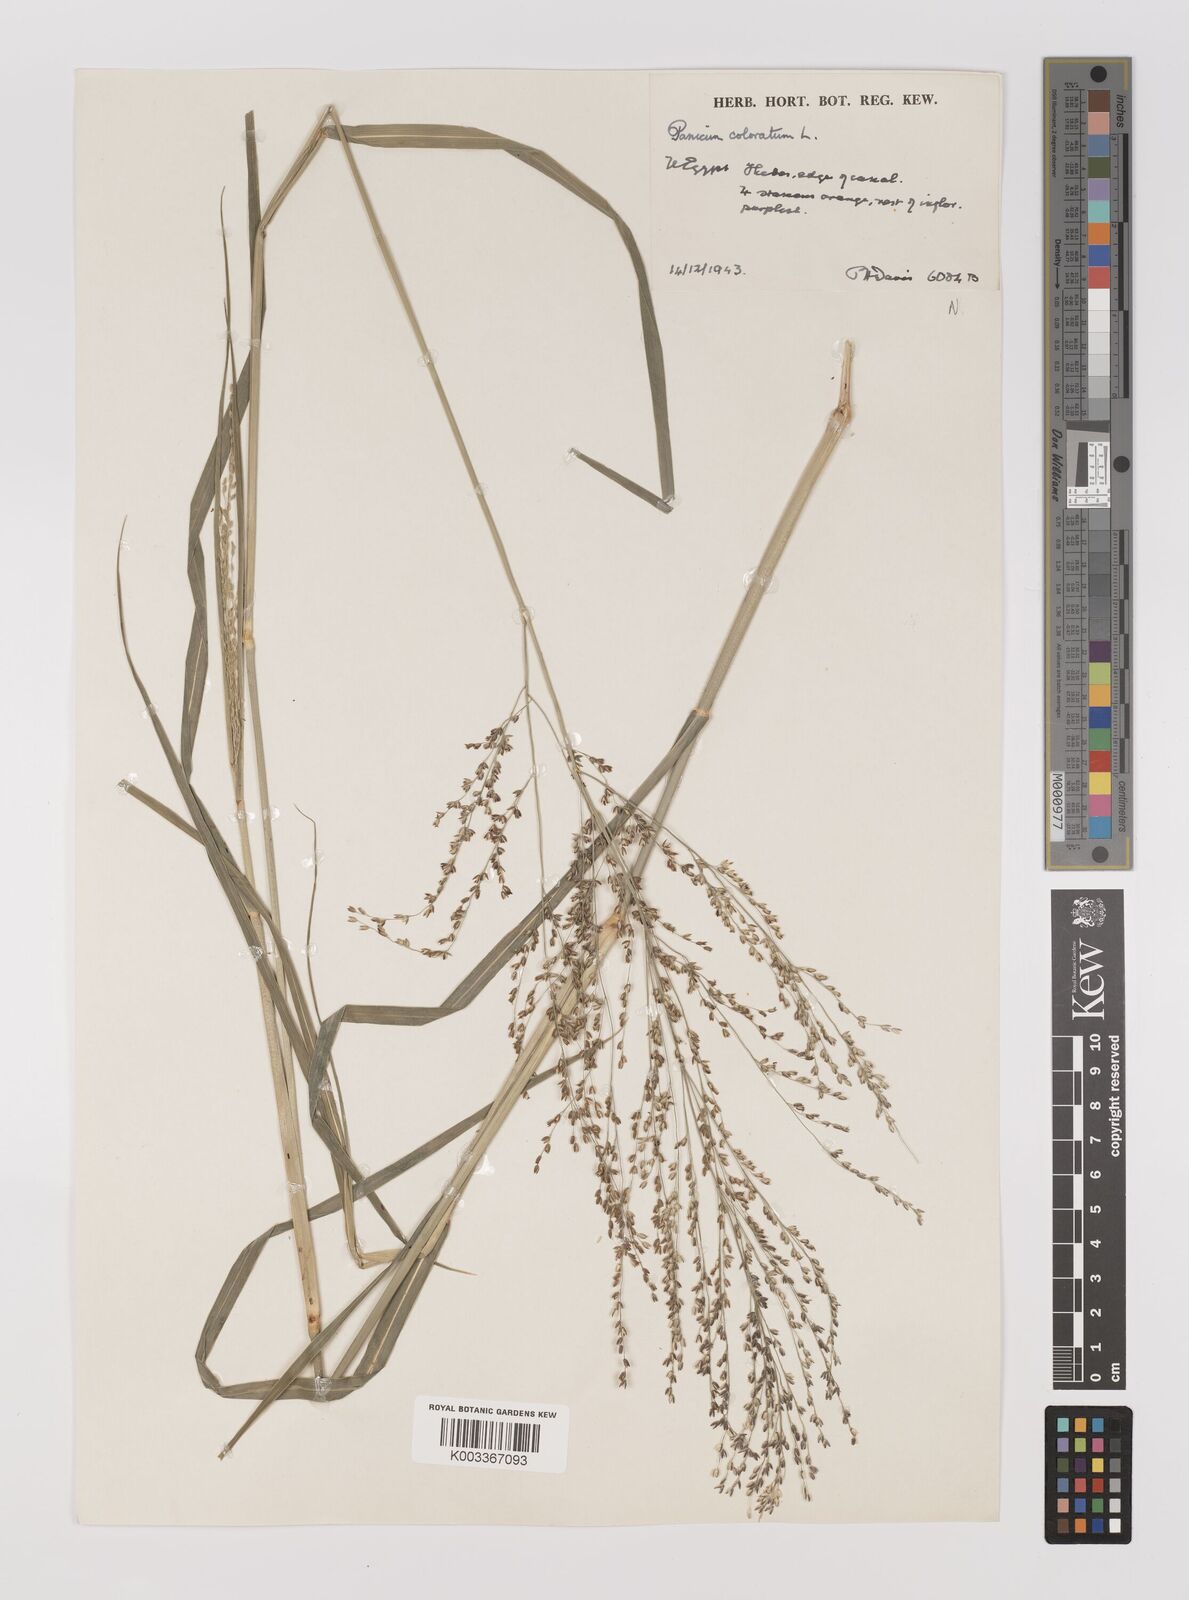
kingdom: Plantae
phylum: Tracheophyta
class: Liliopsida
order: Poales
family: Poaceae
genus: Panicum
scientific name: Panicum coloratum
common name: Kleingrass
